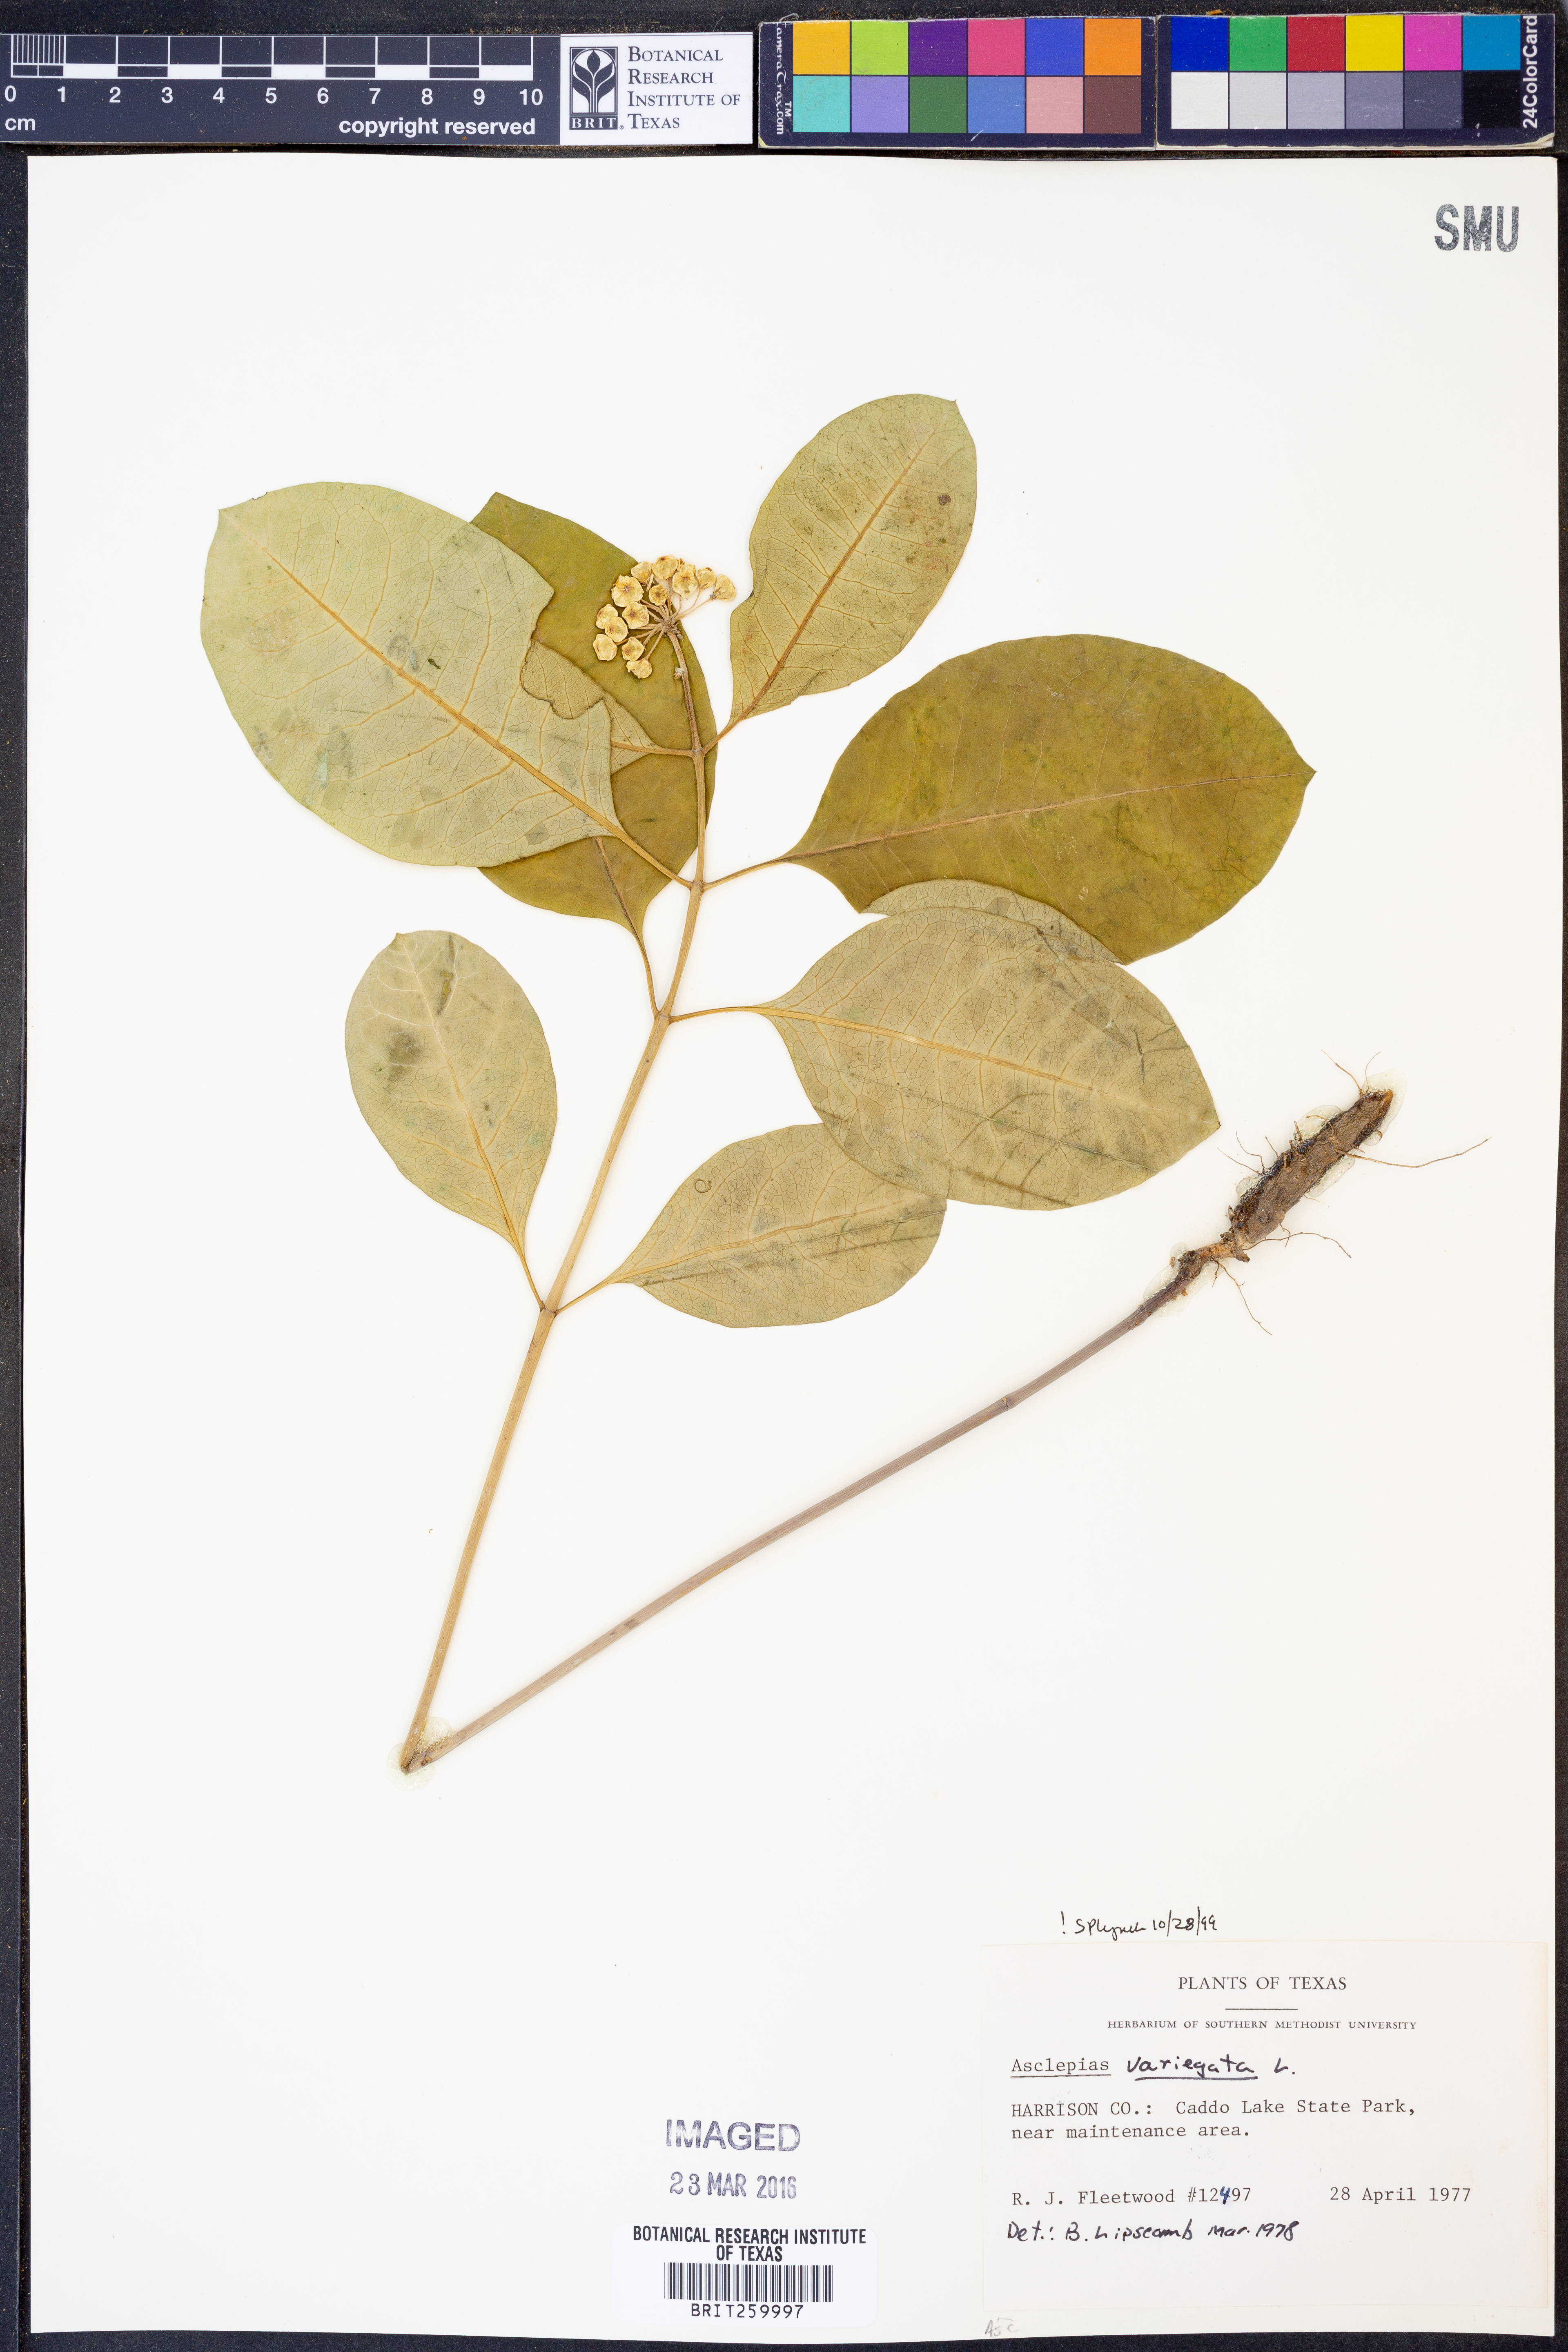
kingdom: Plantae
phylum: Tracheophyta
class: Magnoliopsida
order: Gentianales
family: Apocynaceae
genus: Asclepias
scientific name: Asclepias variegata
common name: Variegated milkweed
